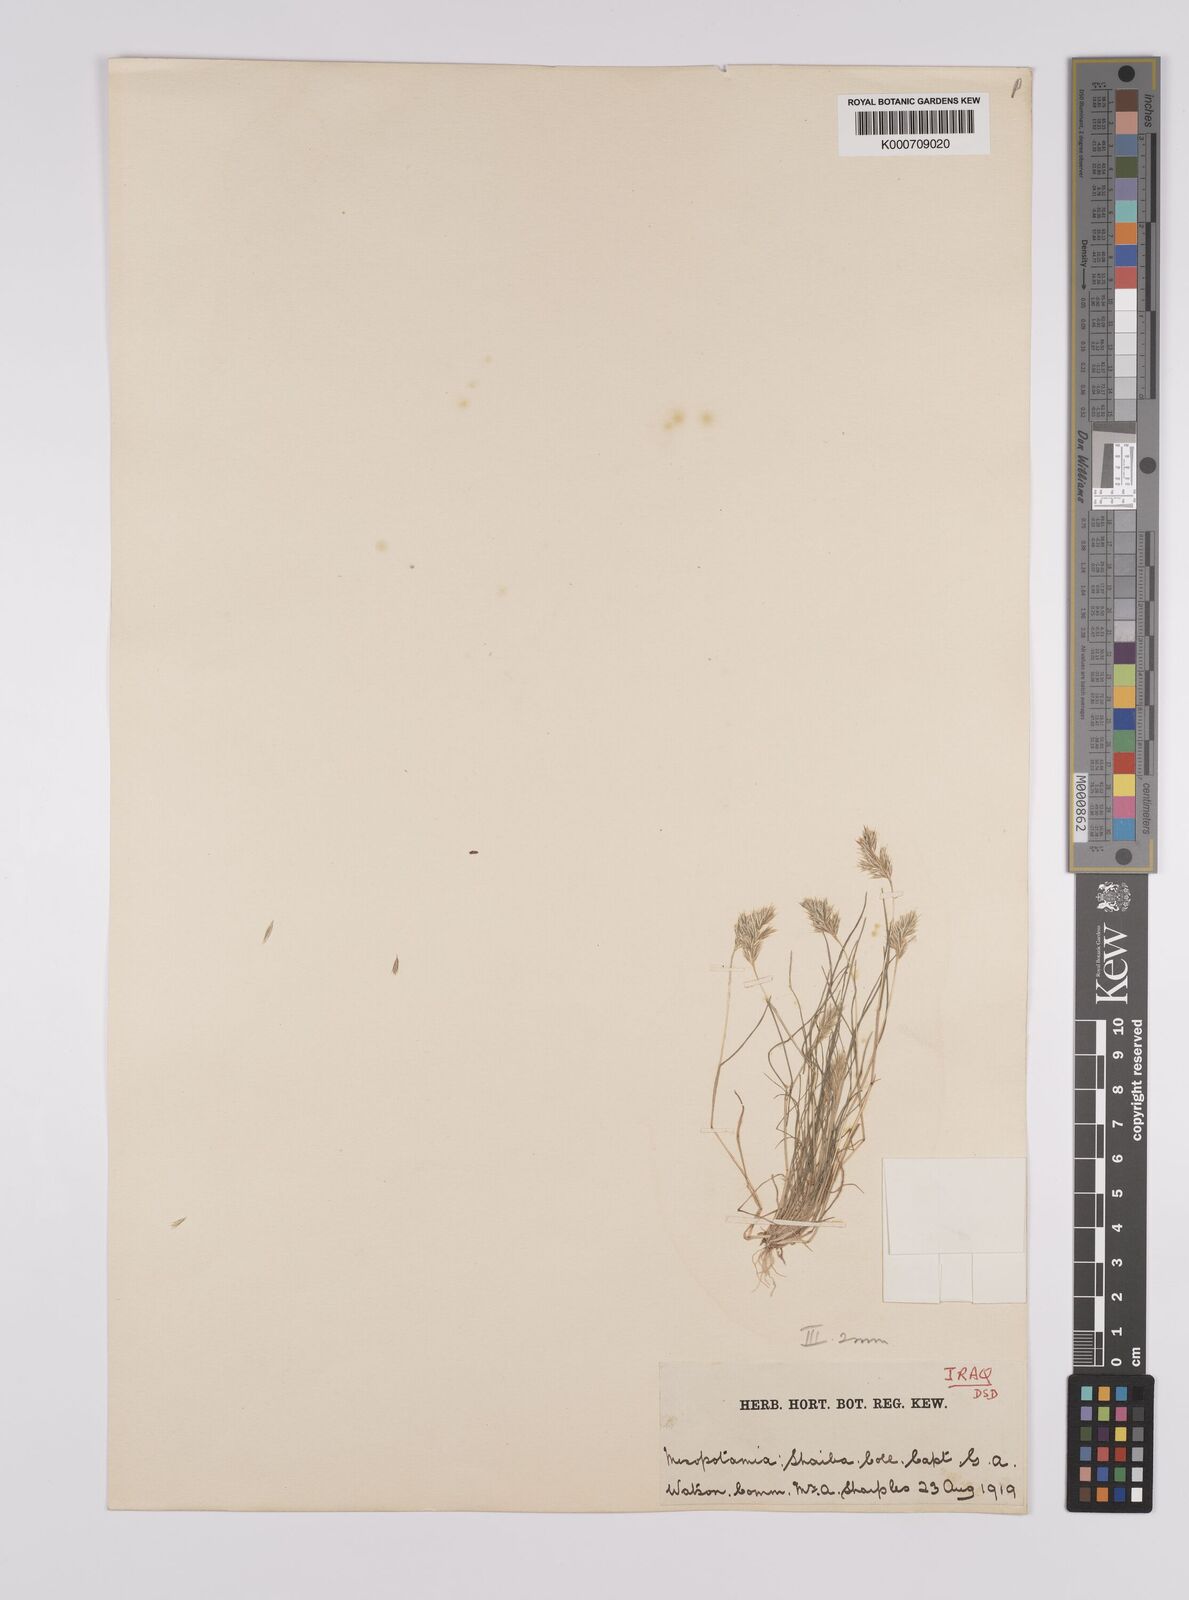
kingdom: Plantae
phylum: Tracheophyta
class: Liliopsida
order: Poales
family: Poaceae
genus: Schismus
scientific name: Schismus arabicus
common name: Arabian schismus
